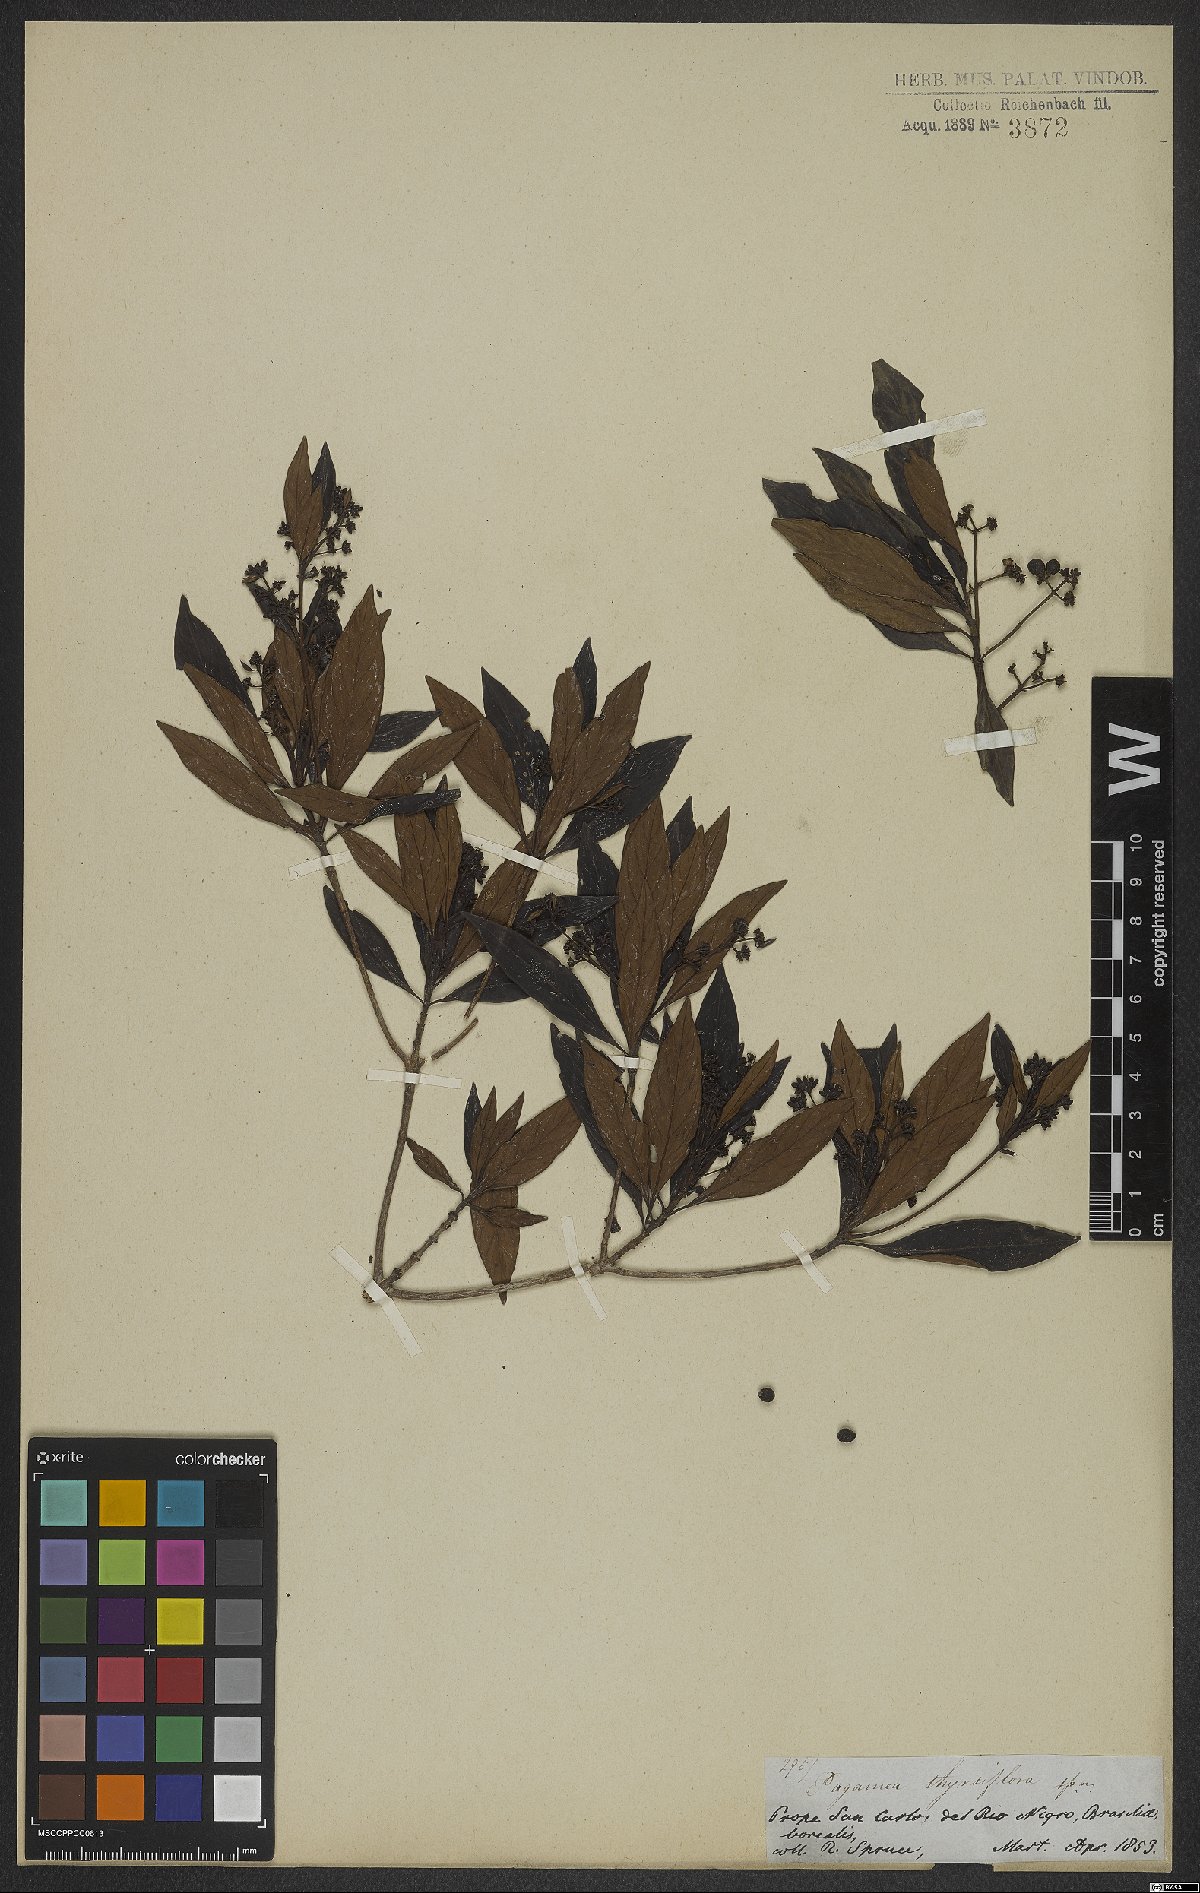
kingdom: Plantae
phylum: Tracheophyta
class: Magnoliopsida
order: Gentianales
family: Rubiaceae
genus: Pagamea
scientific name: Pagamea thyrsiflora
